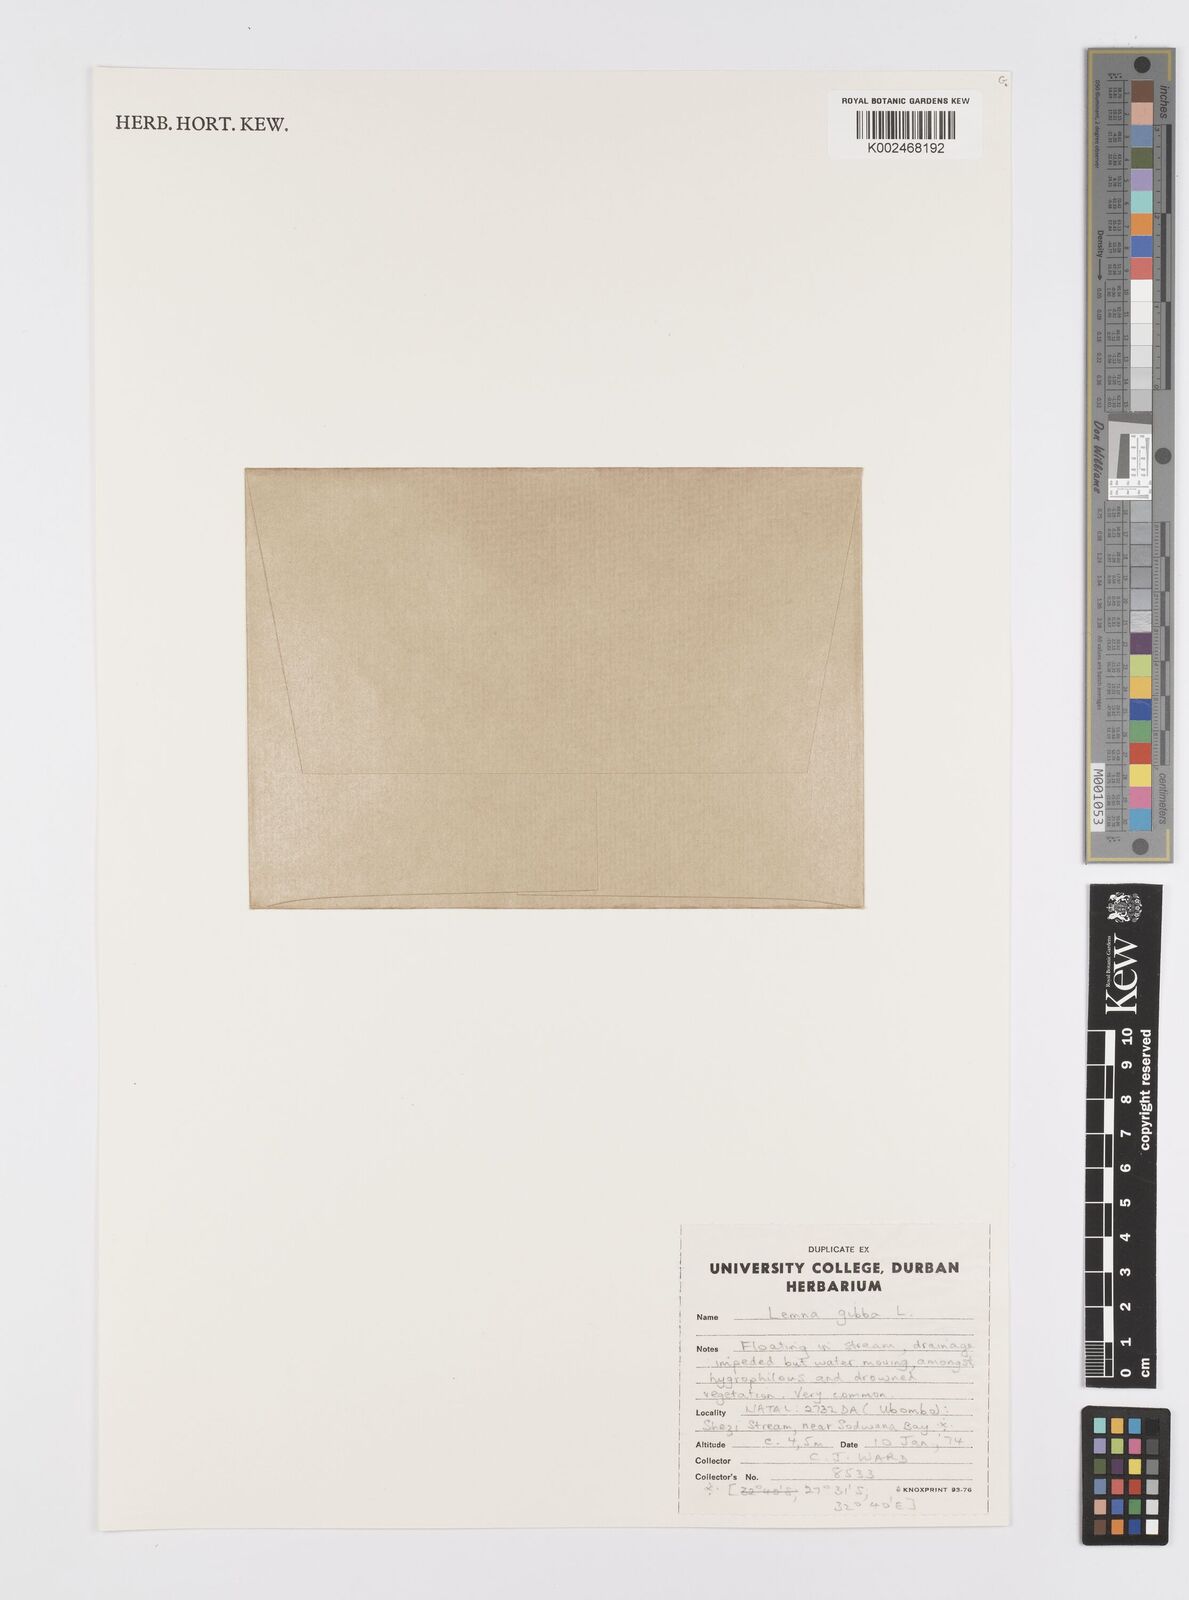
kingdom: Plantae
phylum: Tracheophyta
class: Liliopsida
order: Alismatales
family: Araceae
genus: Lemna
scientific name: Lemna gibba
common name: Fat duckweed
